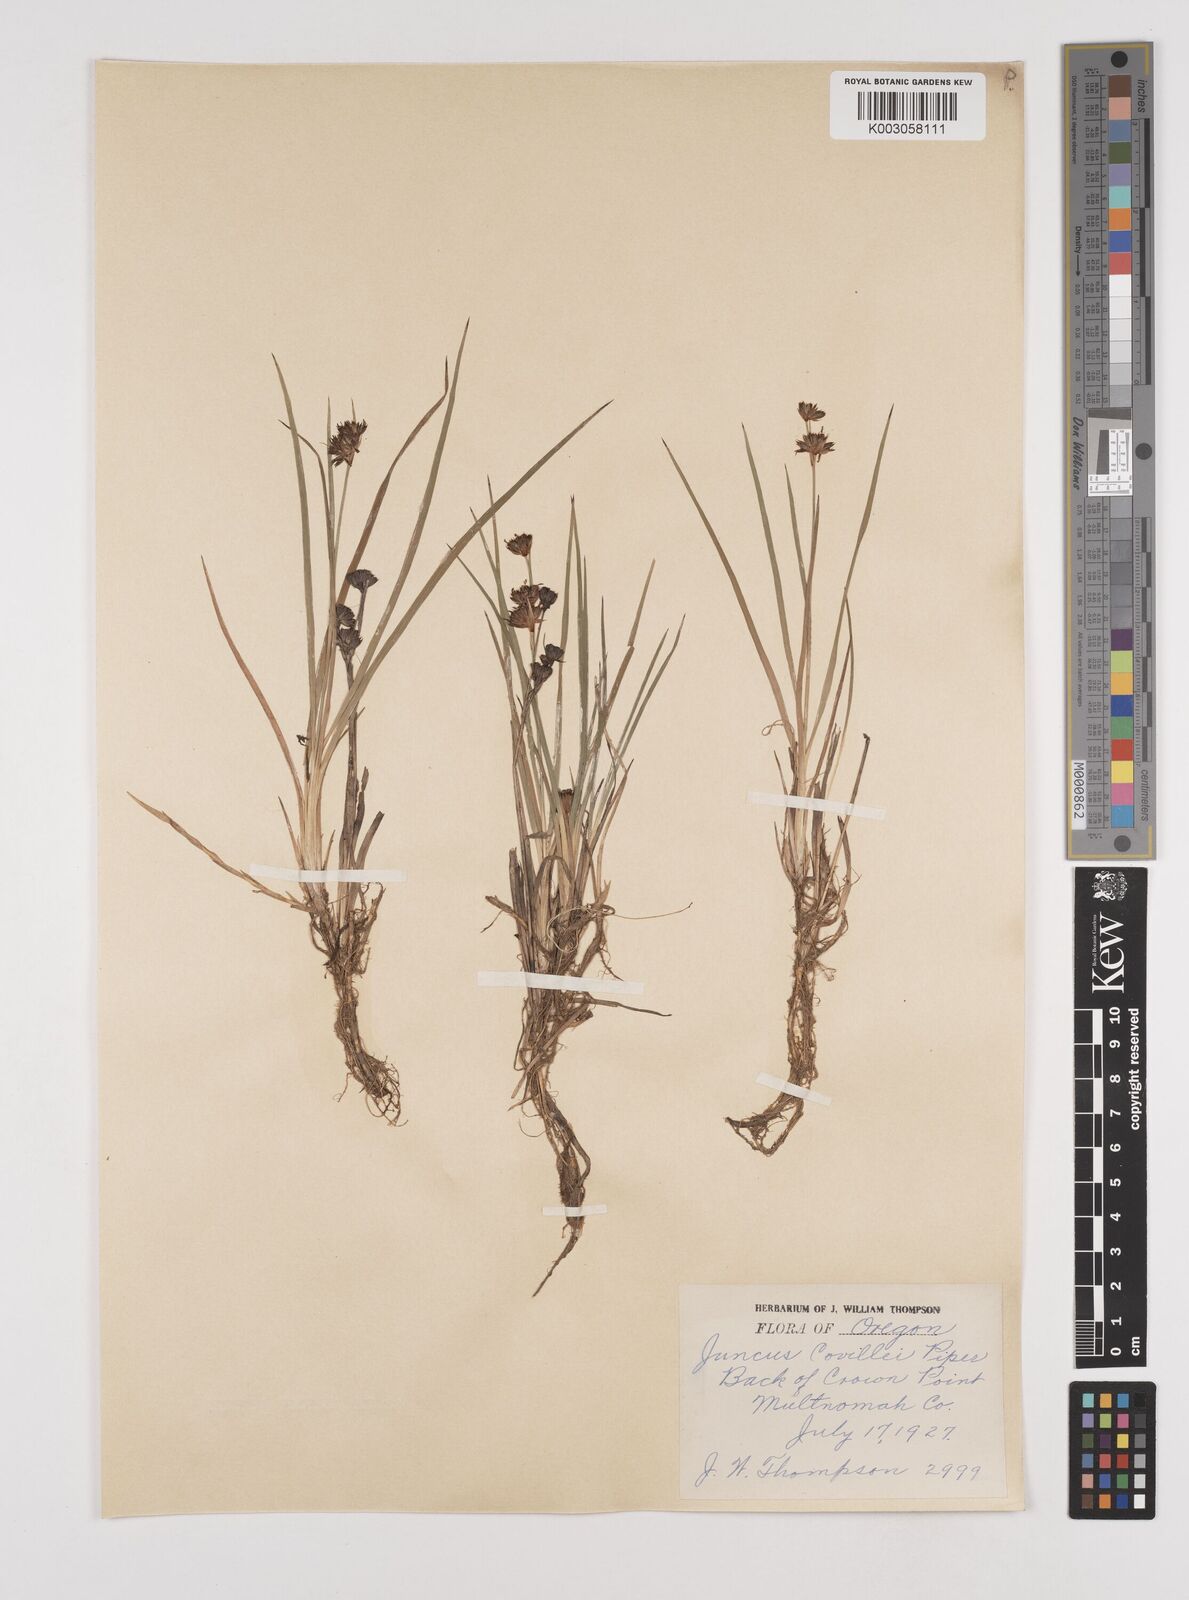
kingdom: Plantae
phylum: Tracheophyta
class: Liliopsida
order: Poales
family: Juncaceae
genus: Juncus
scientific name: Juncus covillei
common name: Coville's rush
